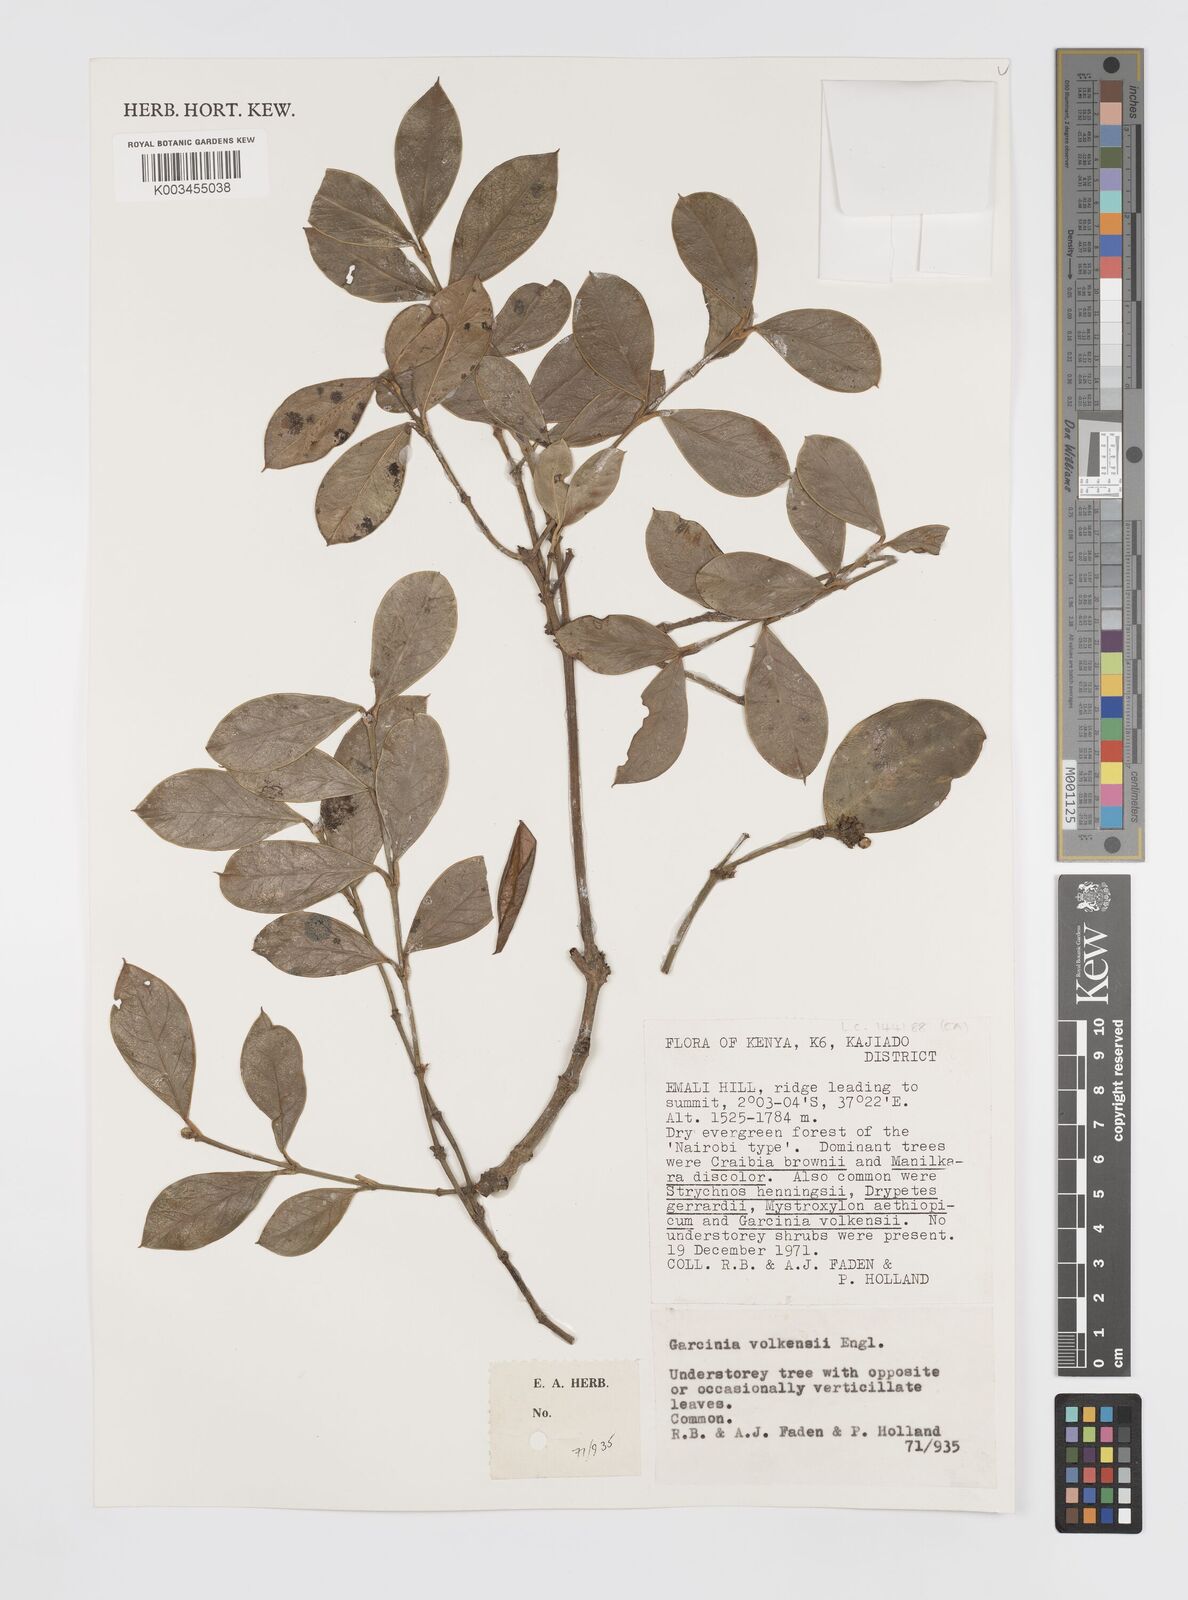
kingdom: Plantae
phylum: Tracheophyta
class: Magnoliopsida
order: Malpighiales
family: Clusiaceae
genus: Garcinia
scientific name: Garcinia volkensii
